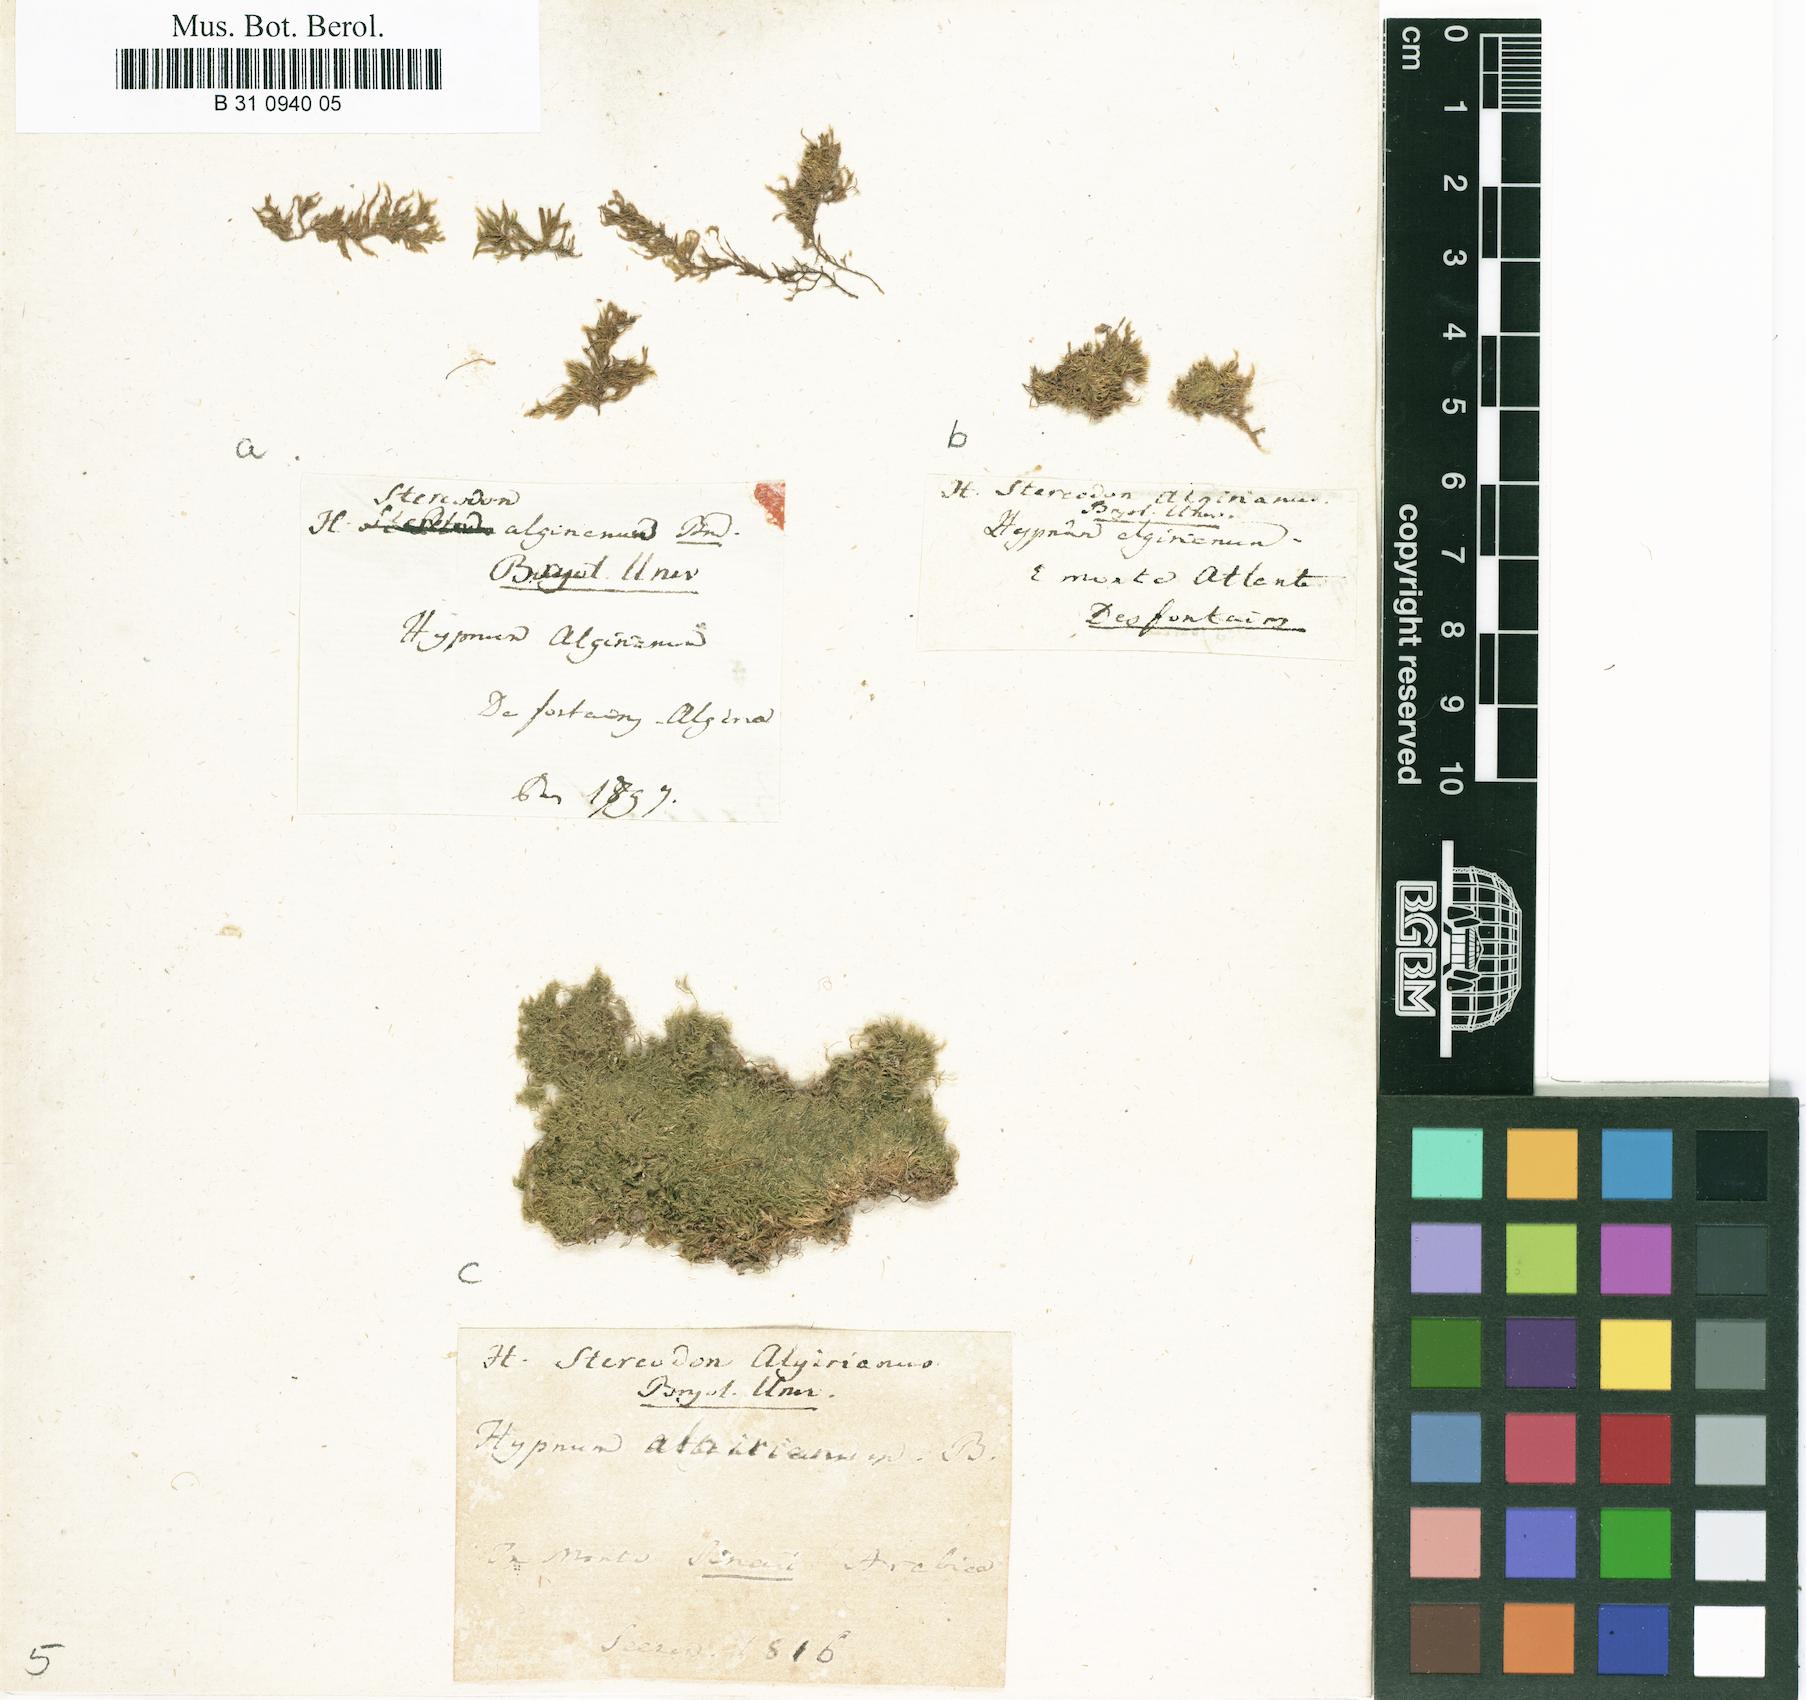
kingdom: Plantae
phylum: Bryophyta
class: Bryopsida
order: Hypnales
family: Brachytheciaceae
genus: Rhynchostegiella
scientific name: Rhynchostegiella curviseta
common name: Curve-stalked feather-moss
